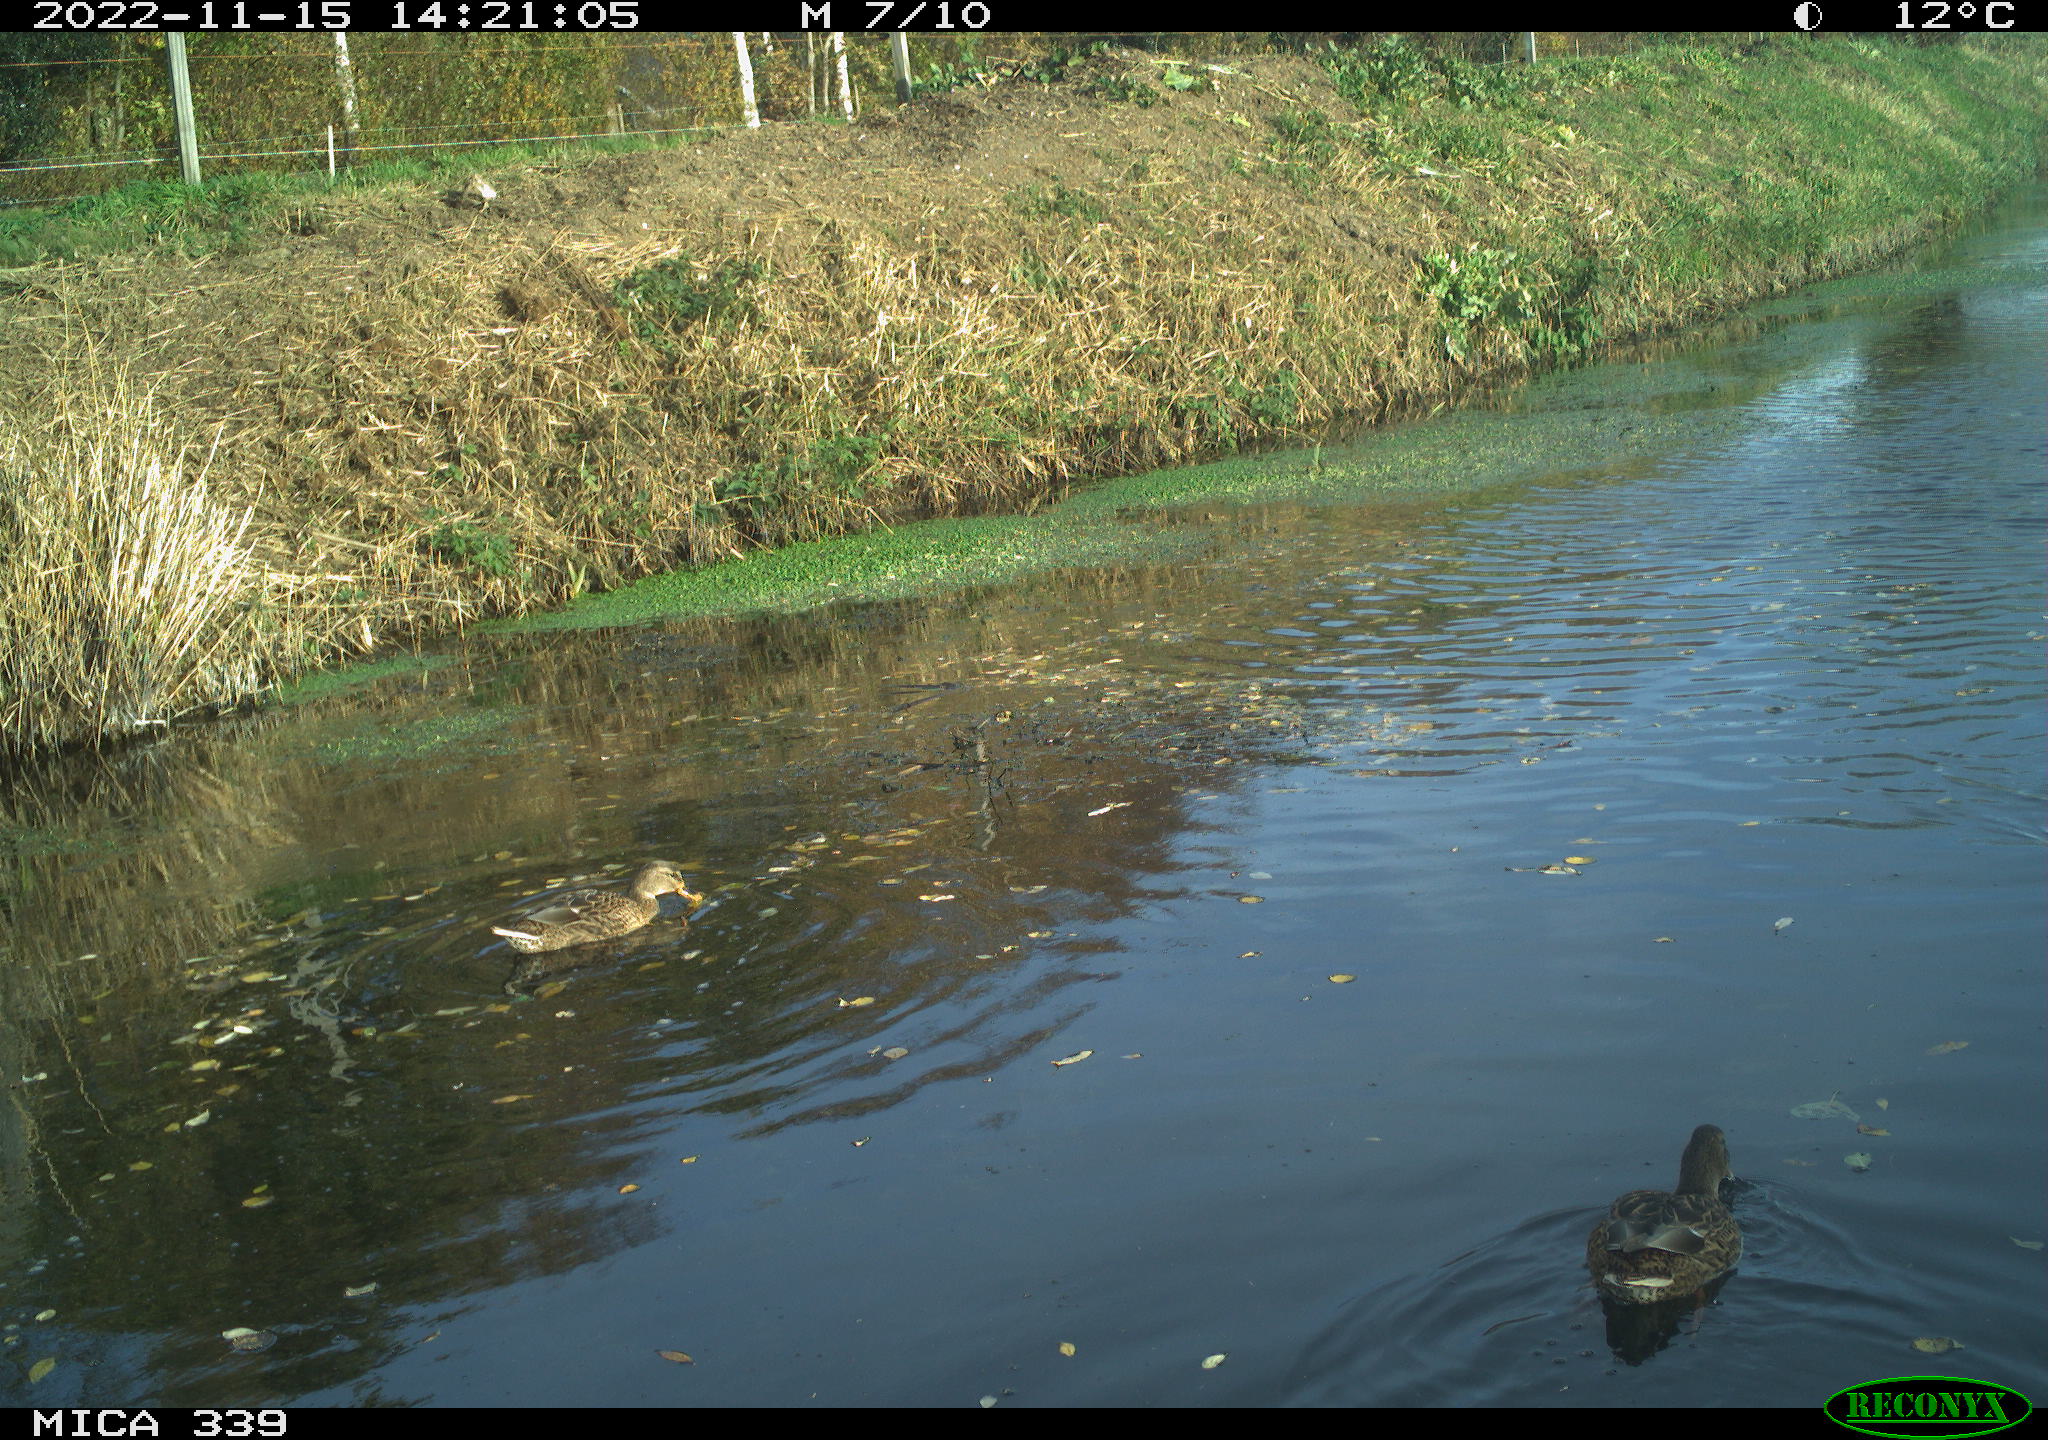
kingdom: Animalia
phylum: Chordata
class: Aves
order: Anseriformes
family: Anatidae
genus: Anas
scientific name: Anas platyrhynchos
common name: Mallard
